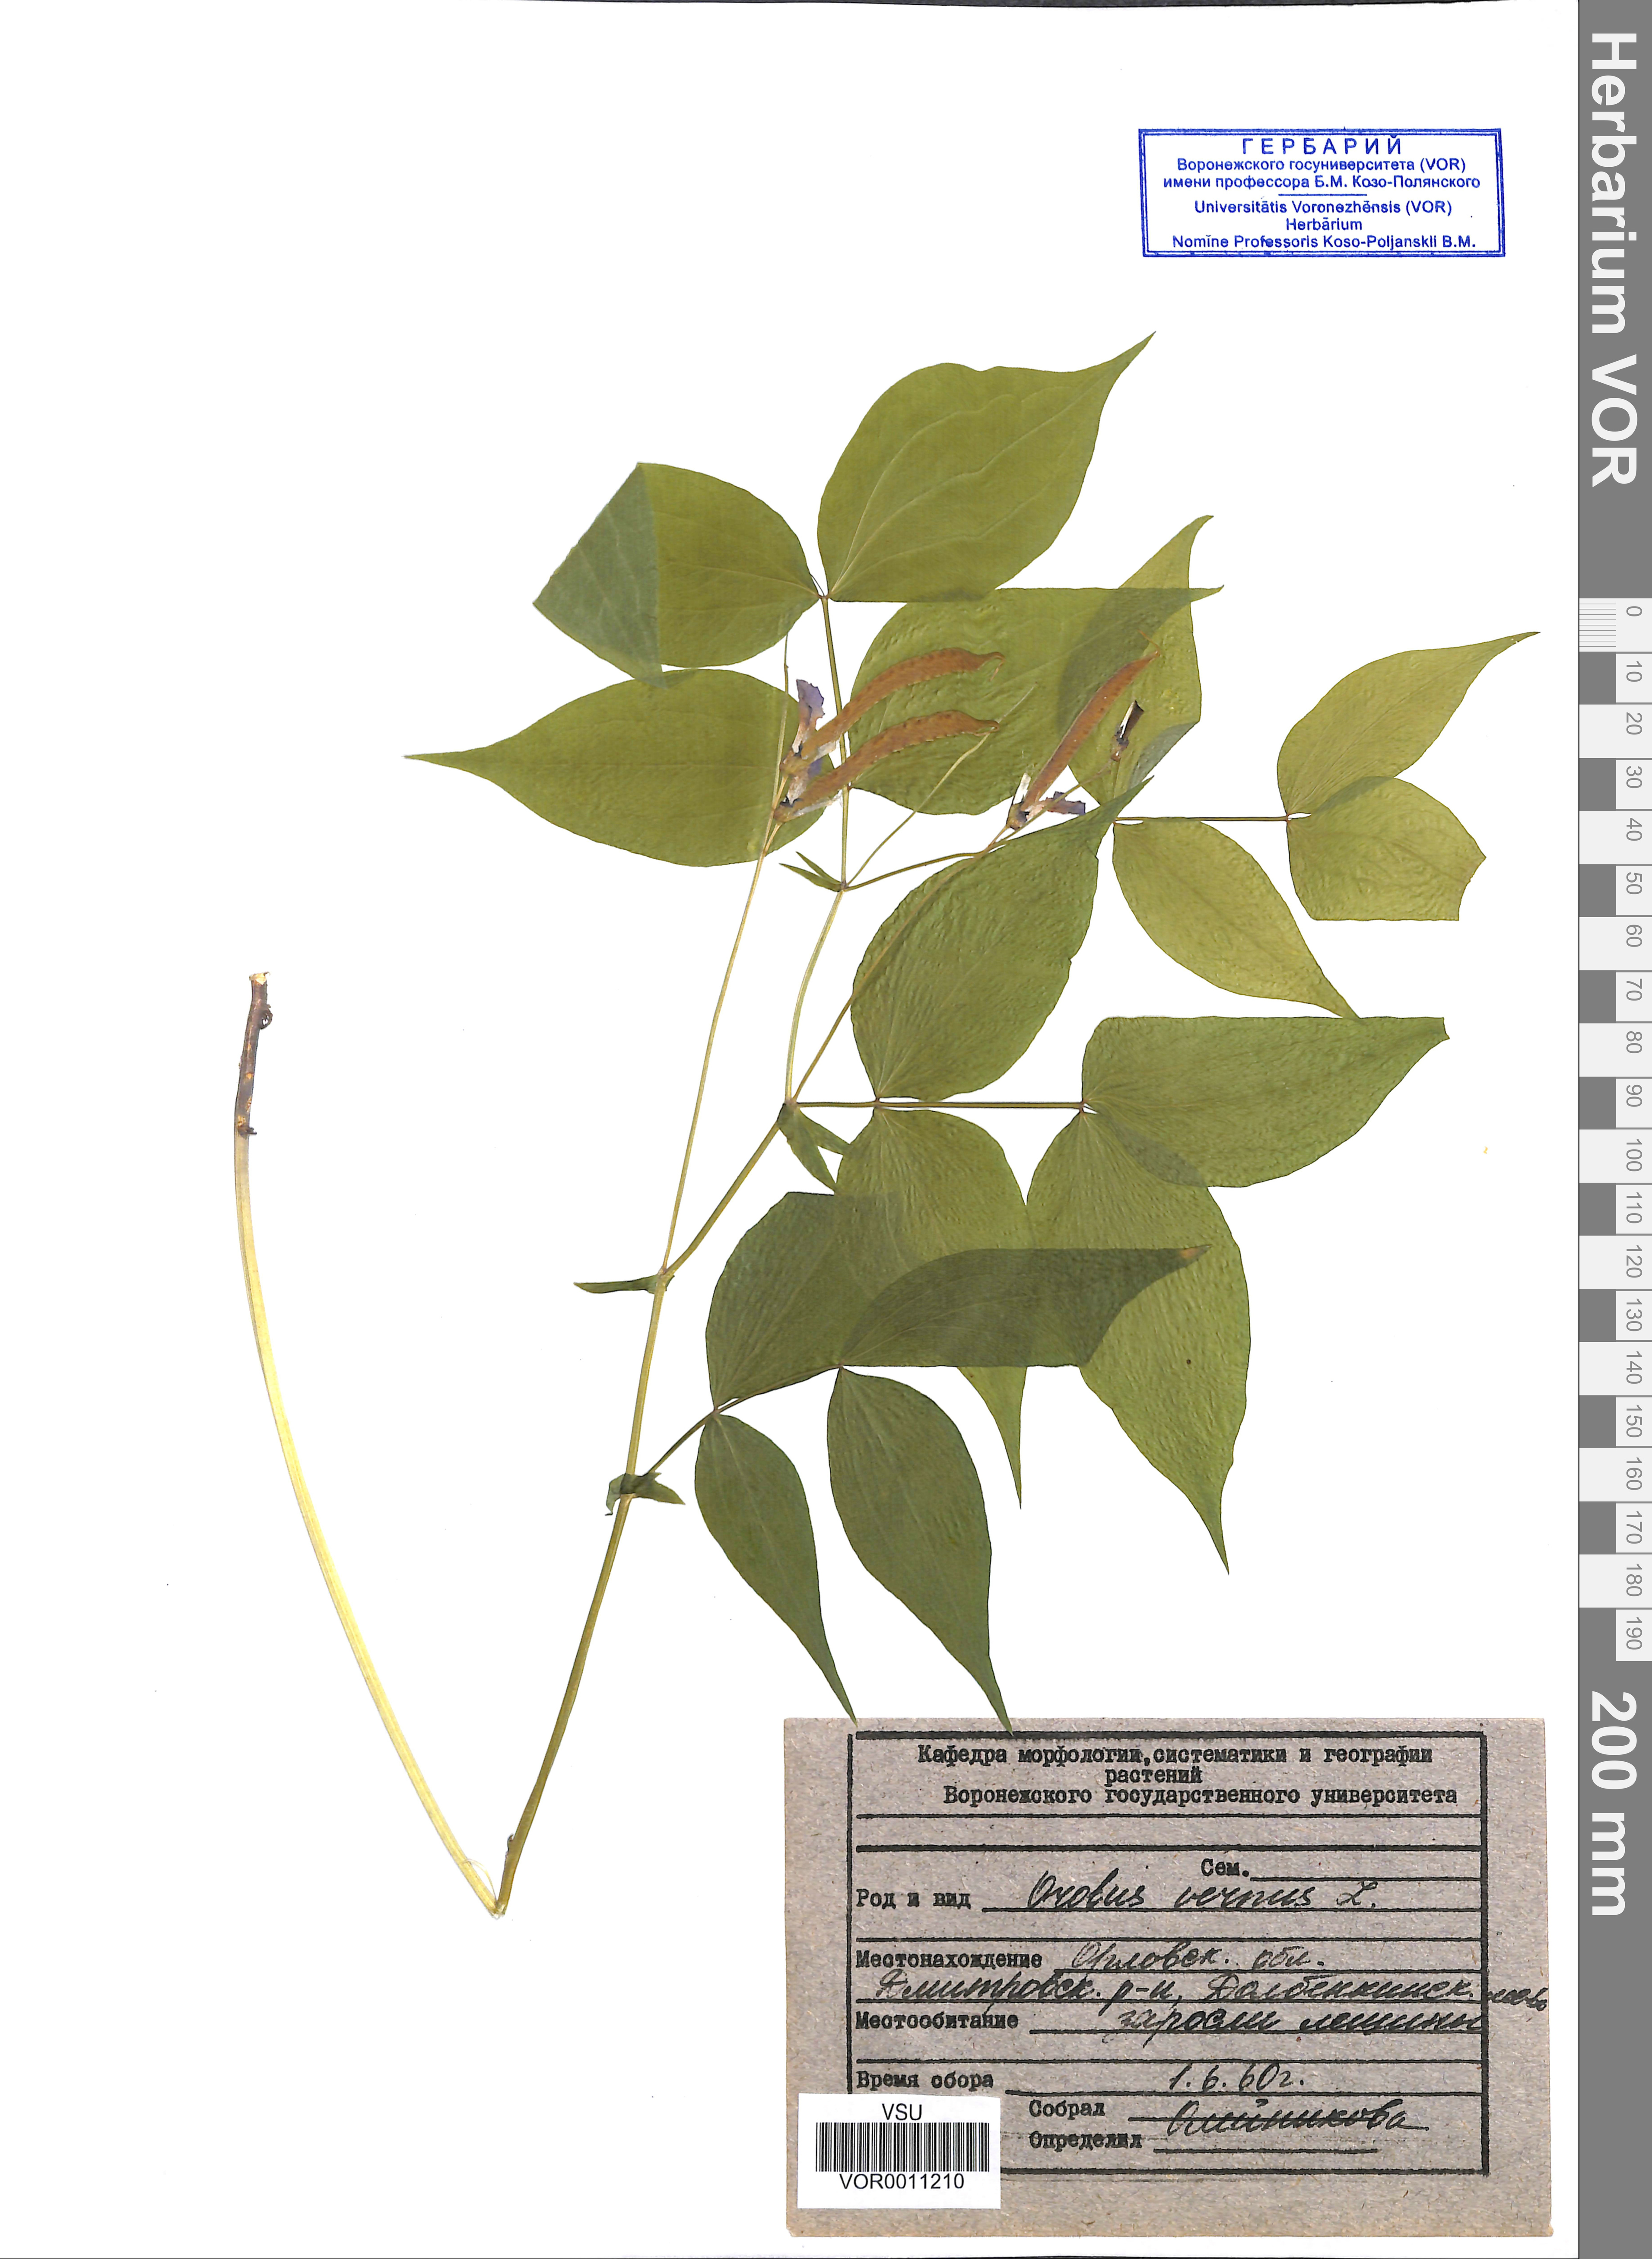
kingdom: Plantae
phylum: Tracheophyta
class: Magnoliopsida
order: Fabales
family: Fabaceae
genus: Lathyrus
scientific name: Lathyrus vernus
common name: Spring pea
